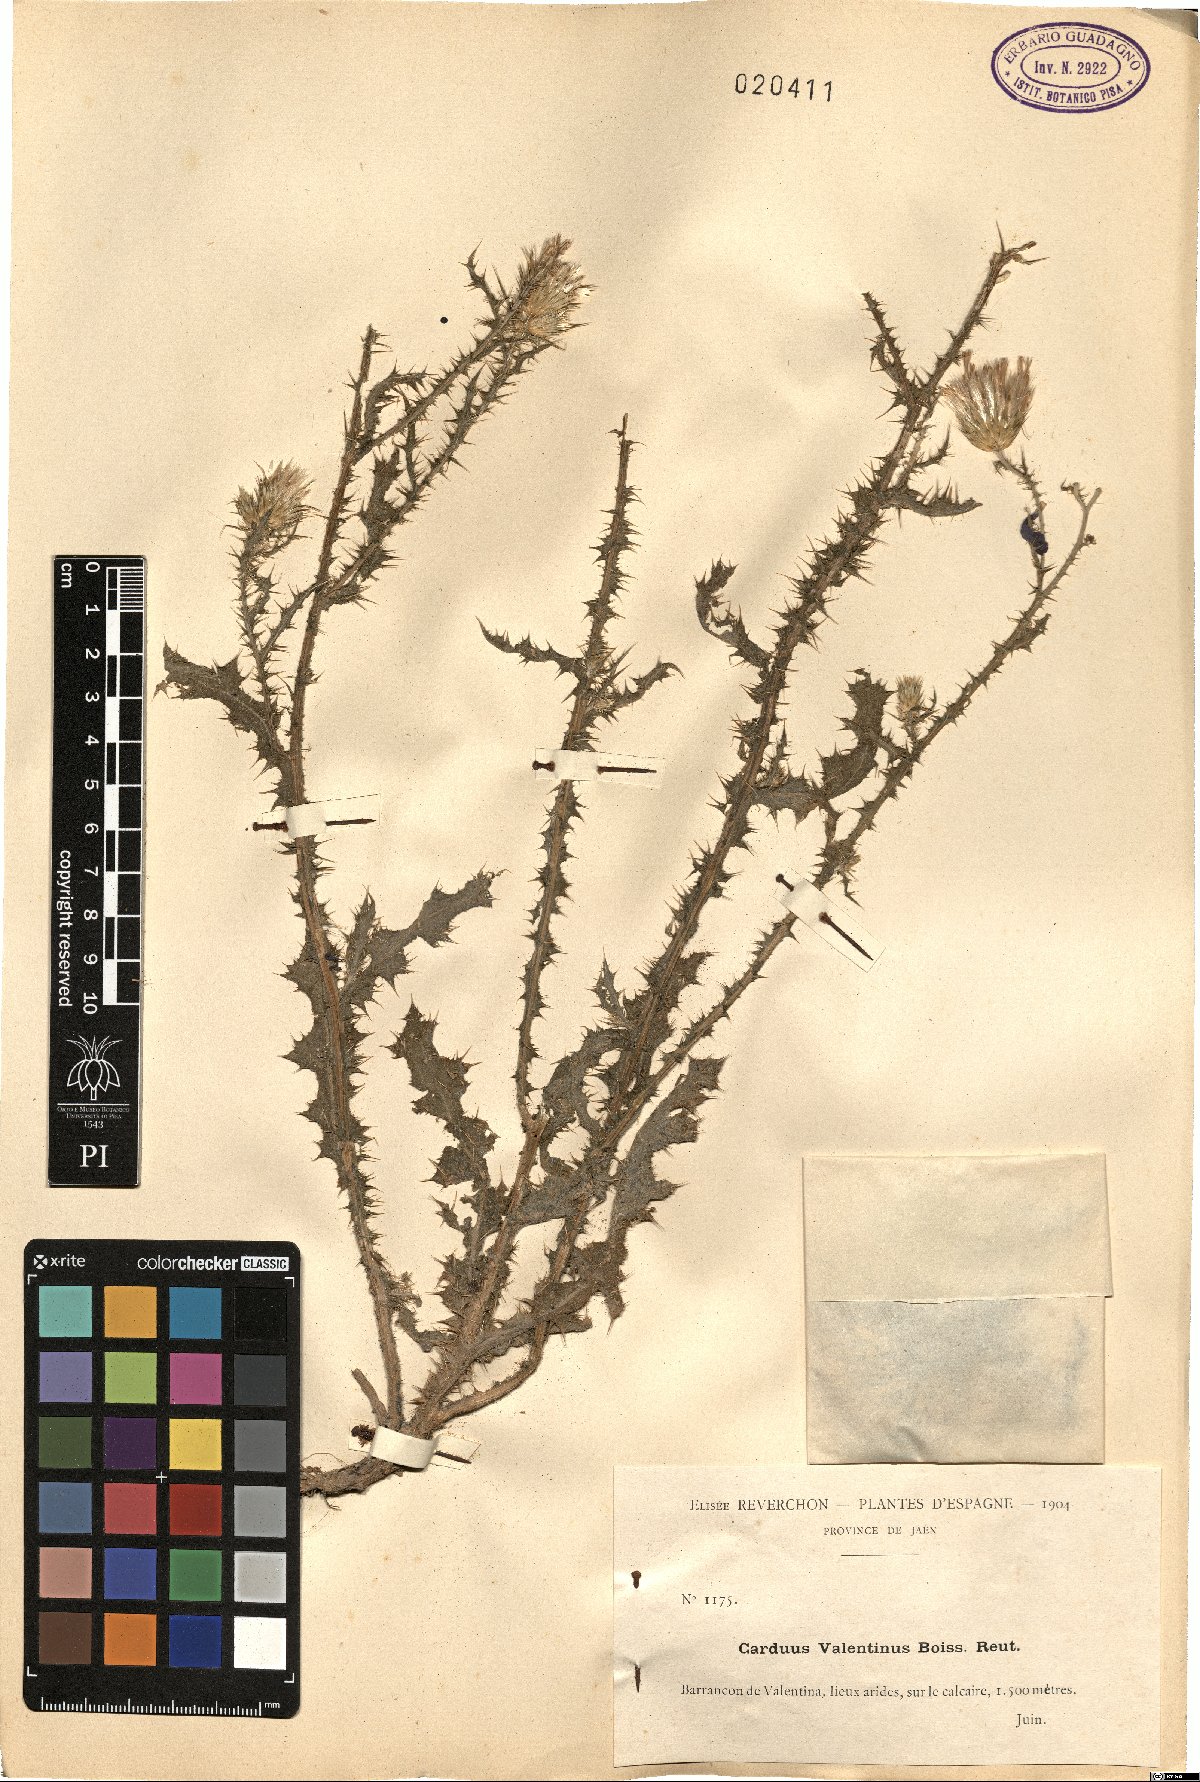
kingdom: Plantae
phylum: Tracheophyta
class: Magnoliopsida
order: Asterales
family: Asteraceae
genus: Carduus
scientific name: Carduus meonanthus
